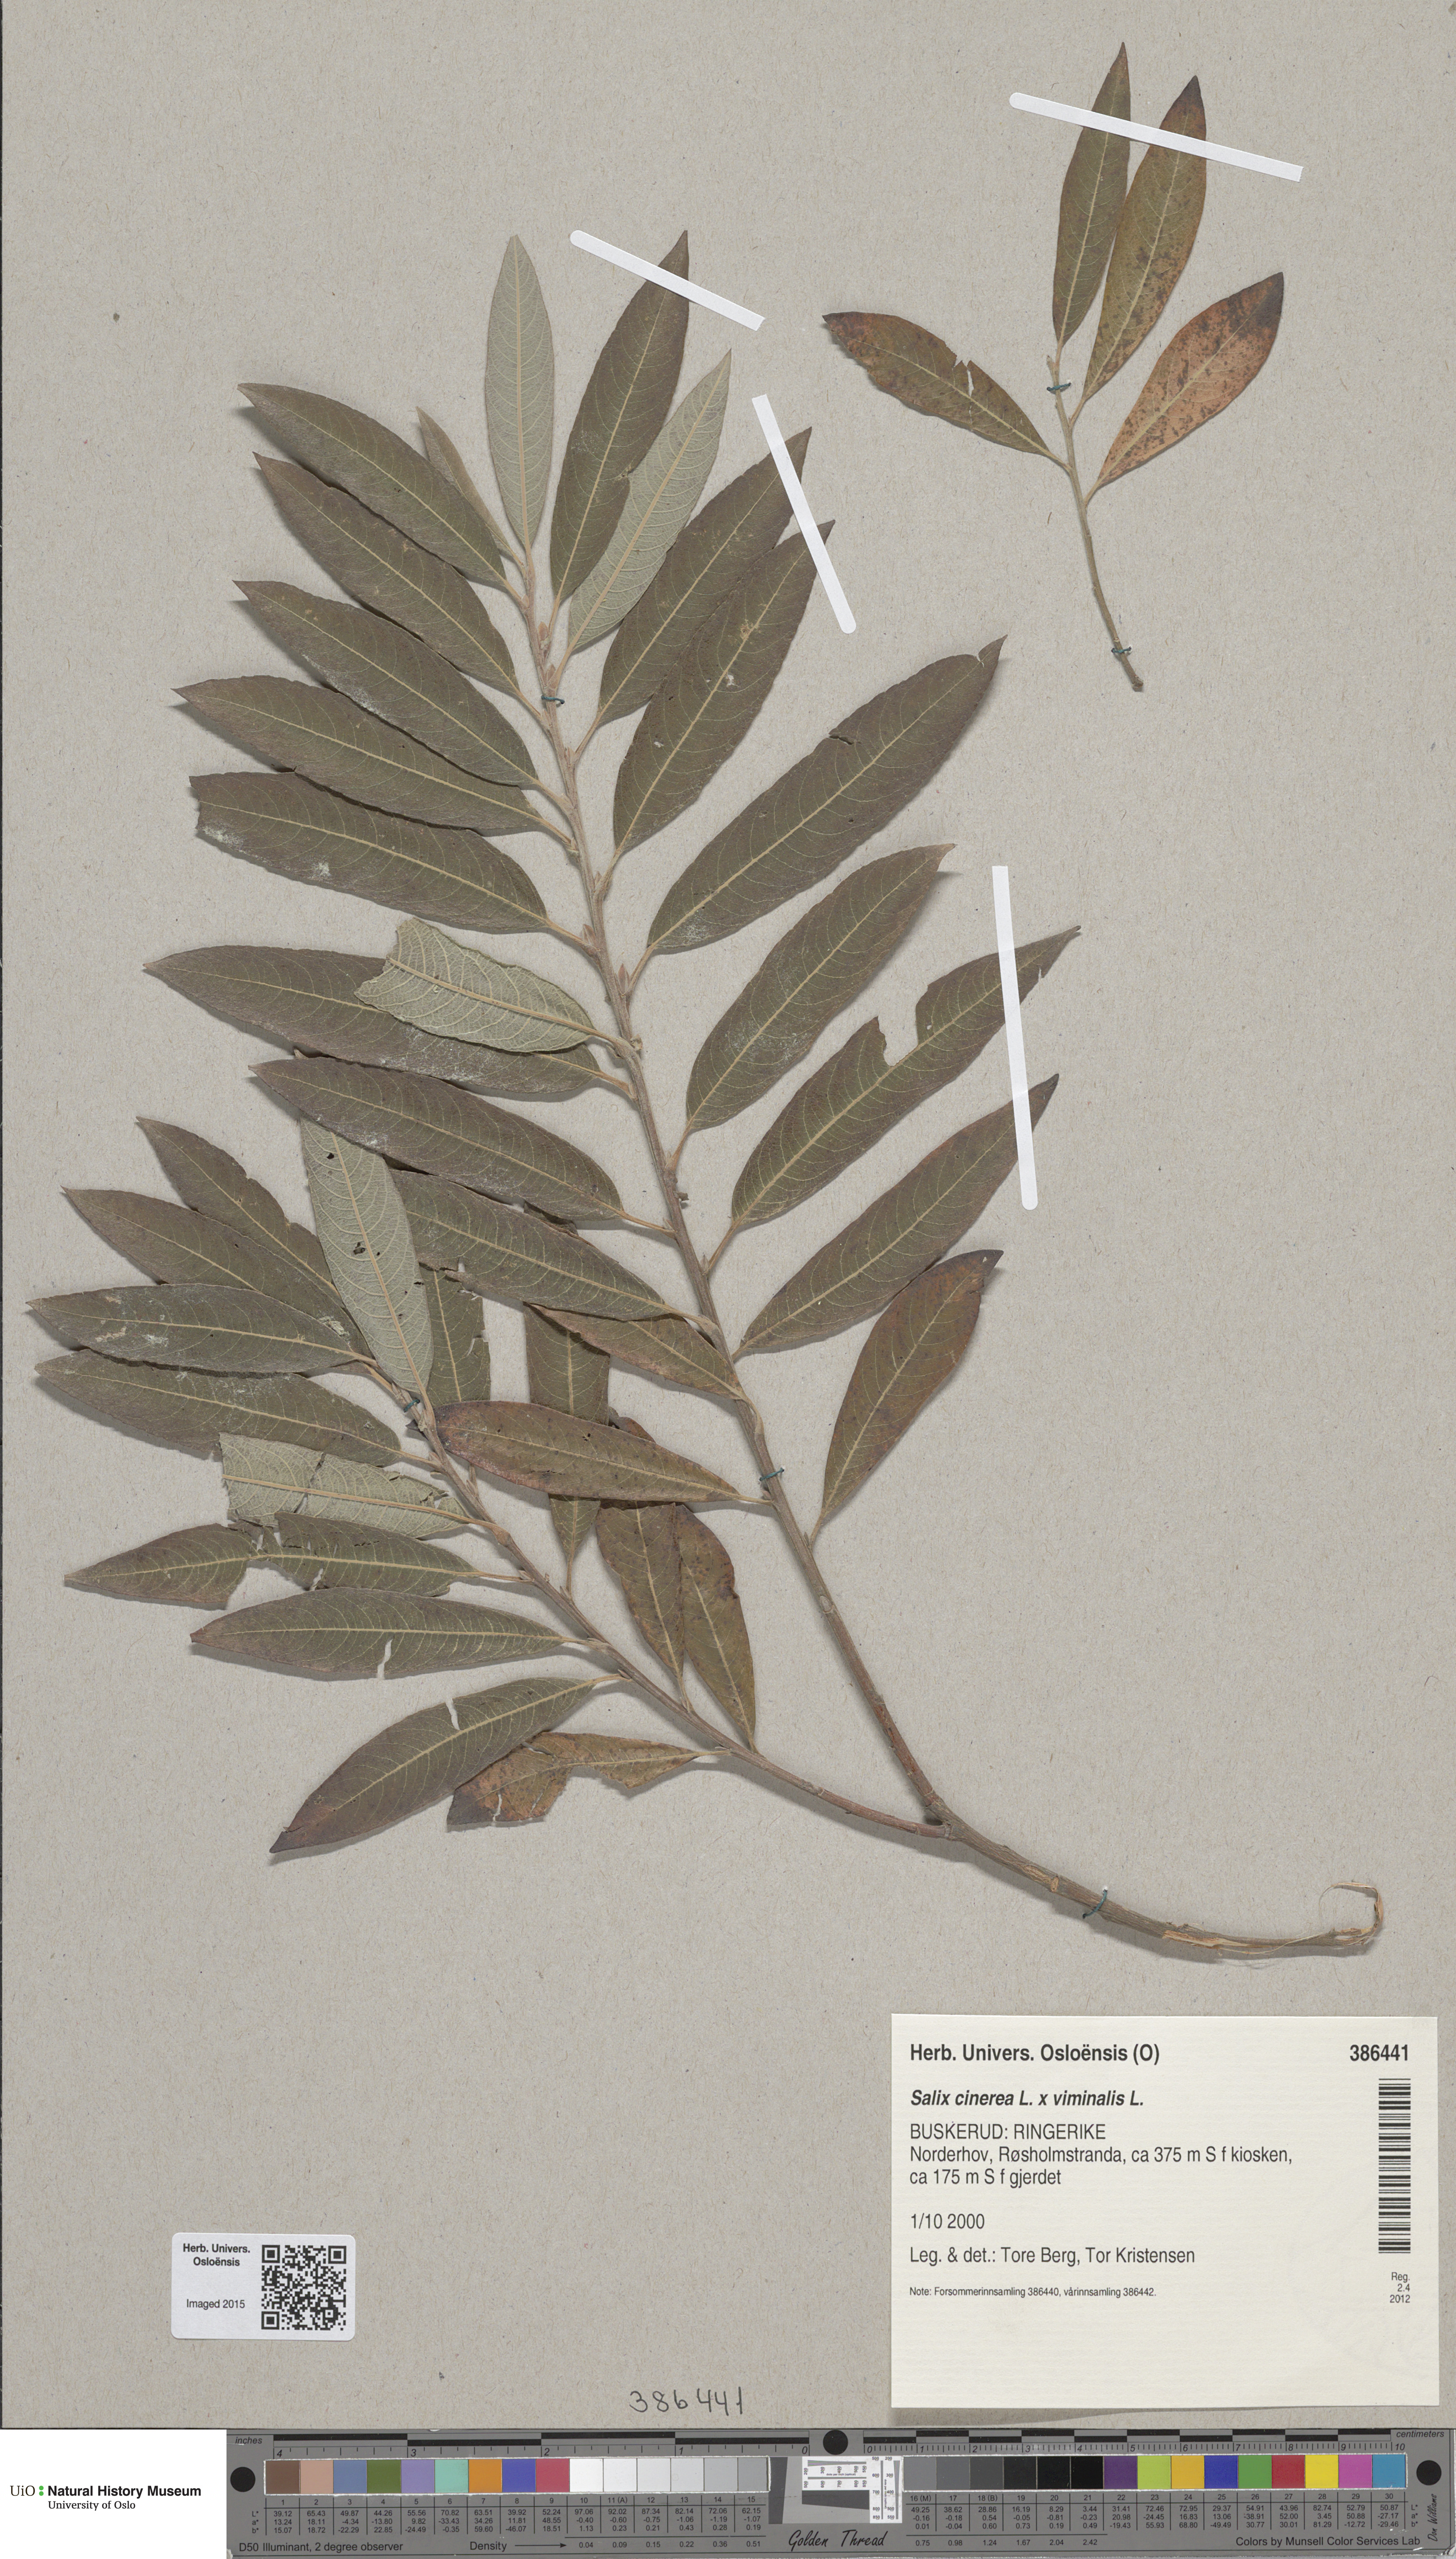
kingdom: Plantae
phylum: Tracheophyta
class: Magnoliopsida
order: Malpighiales
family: Salicaceae
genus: Salix
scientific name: Salix
